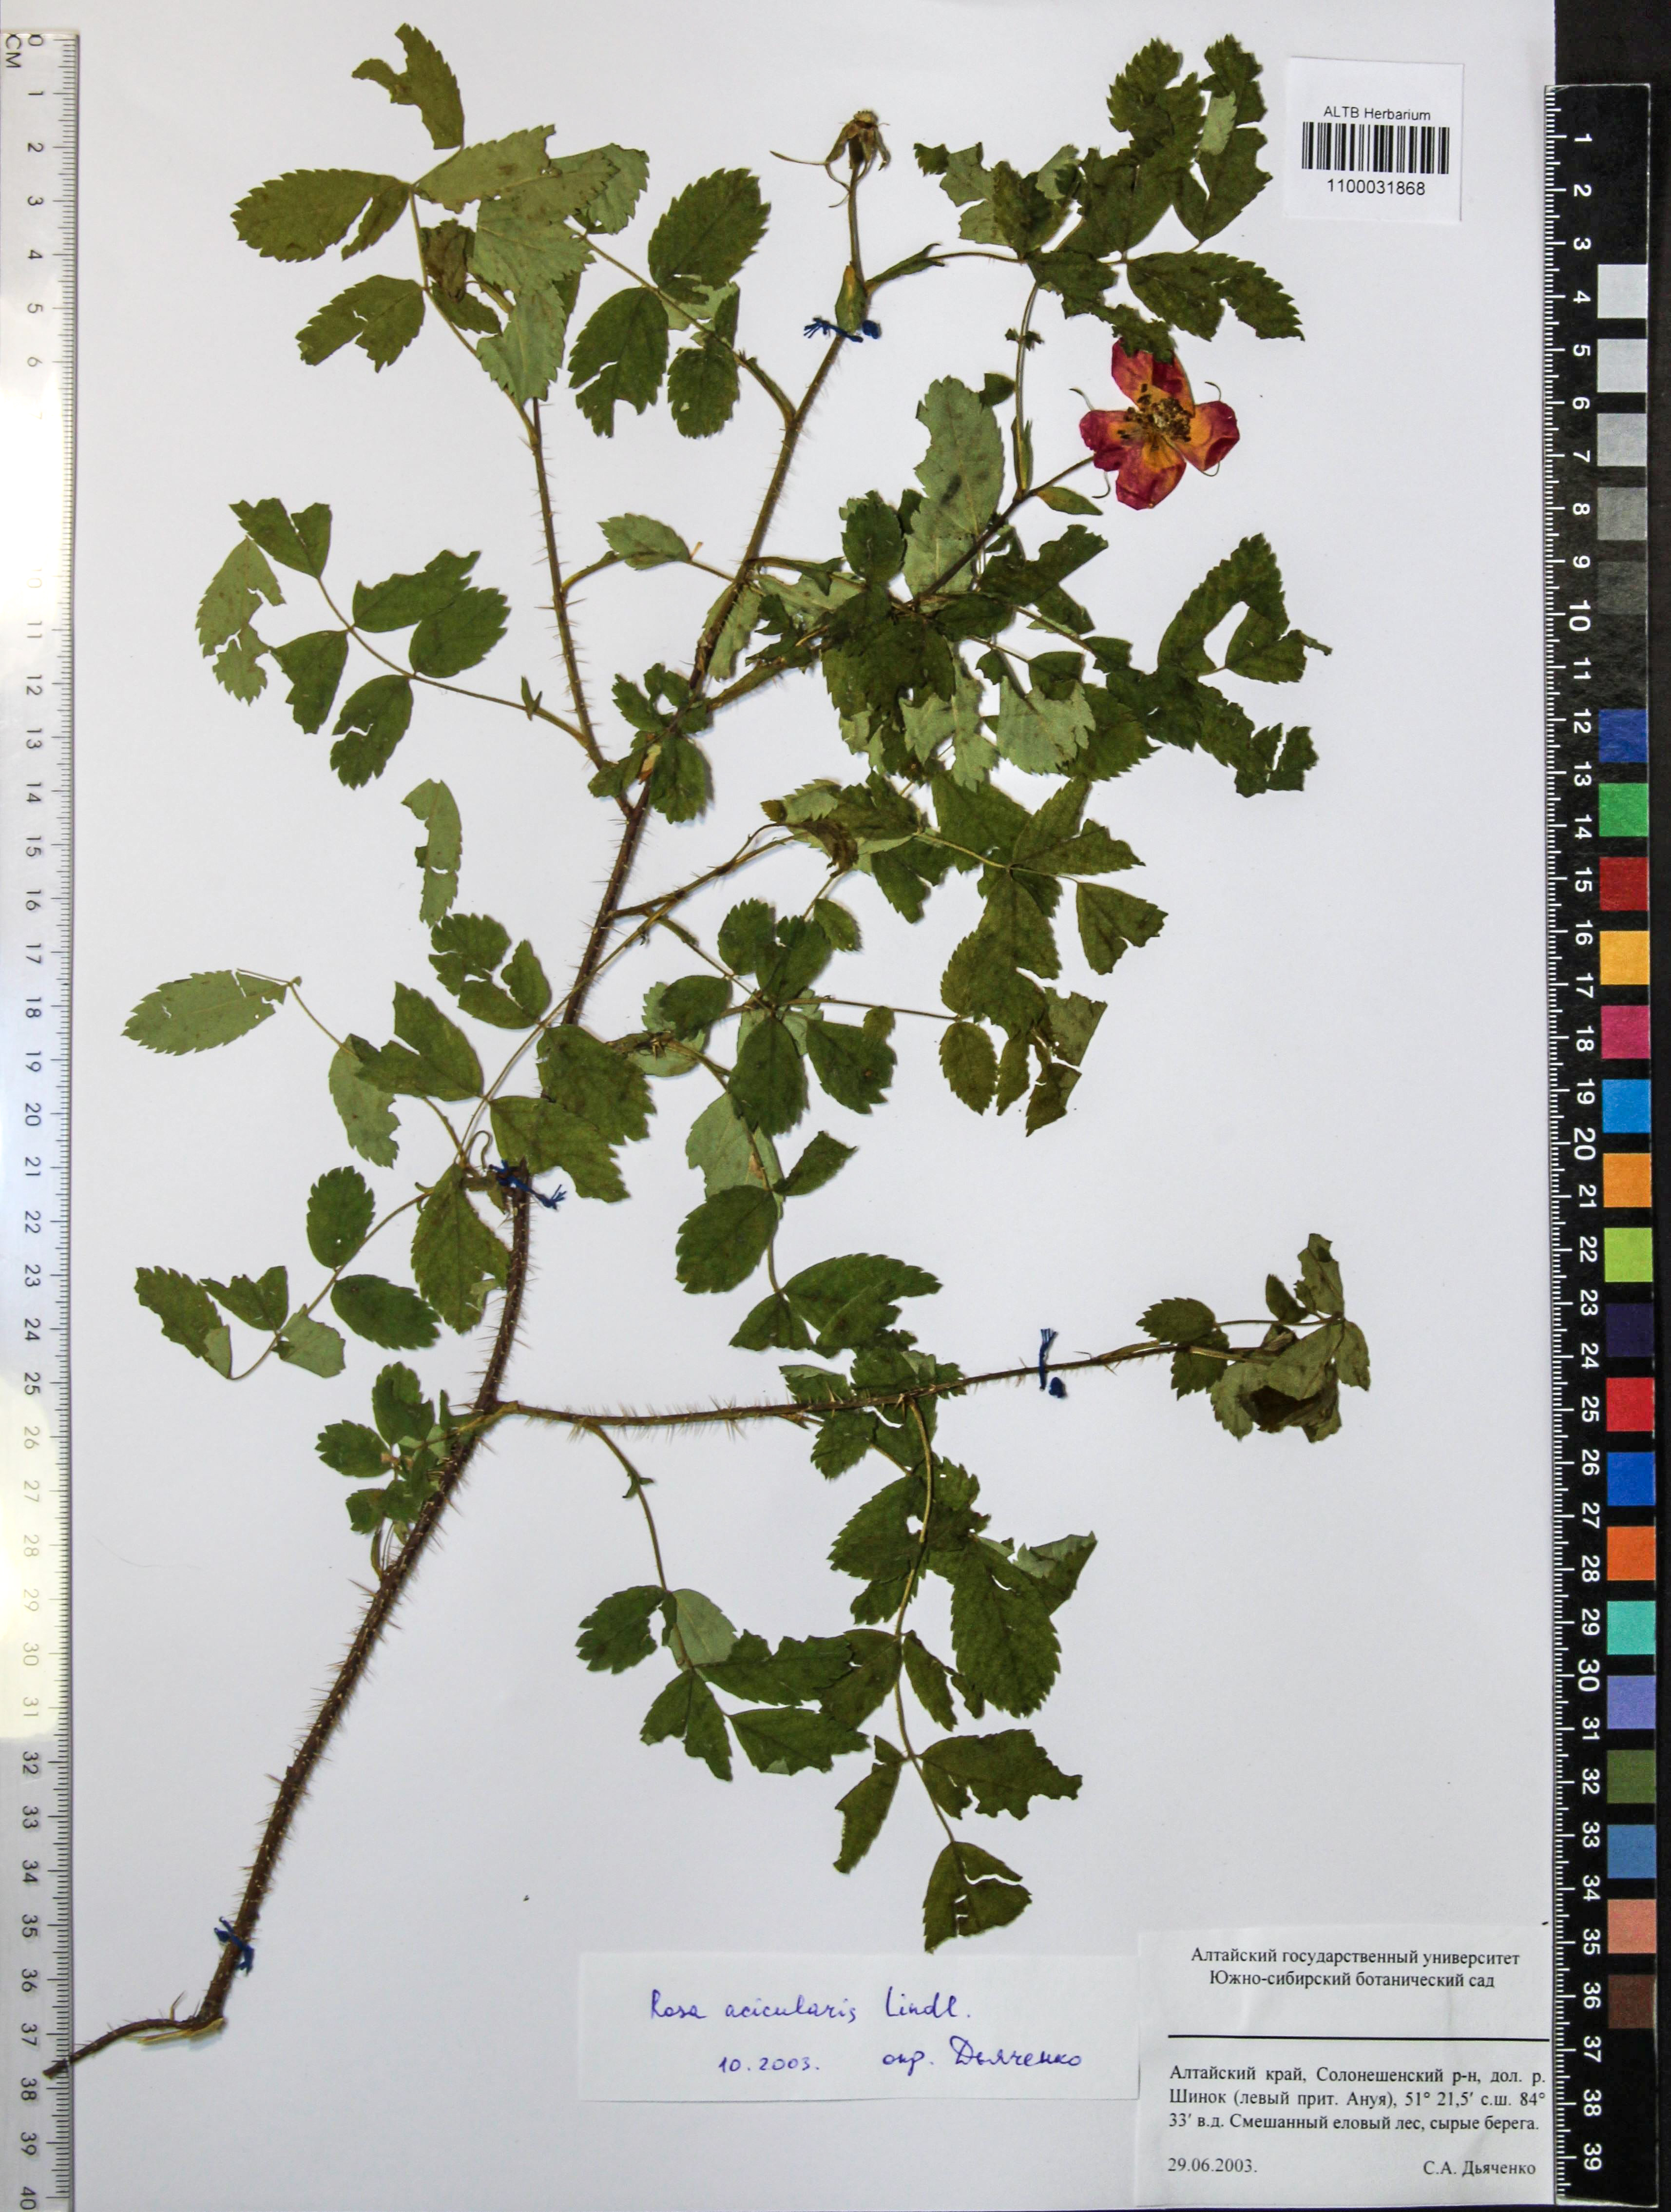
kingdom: Plantae
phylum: Tracheophyta
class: Magnoliopsida
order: Rosales
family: Rosaceae
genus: Rosa
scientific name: Rosa acicularis
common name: Prickly rose
